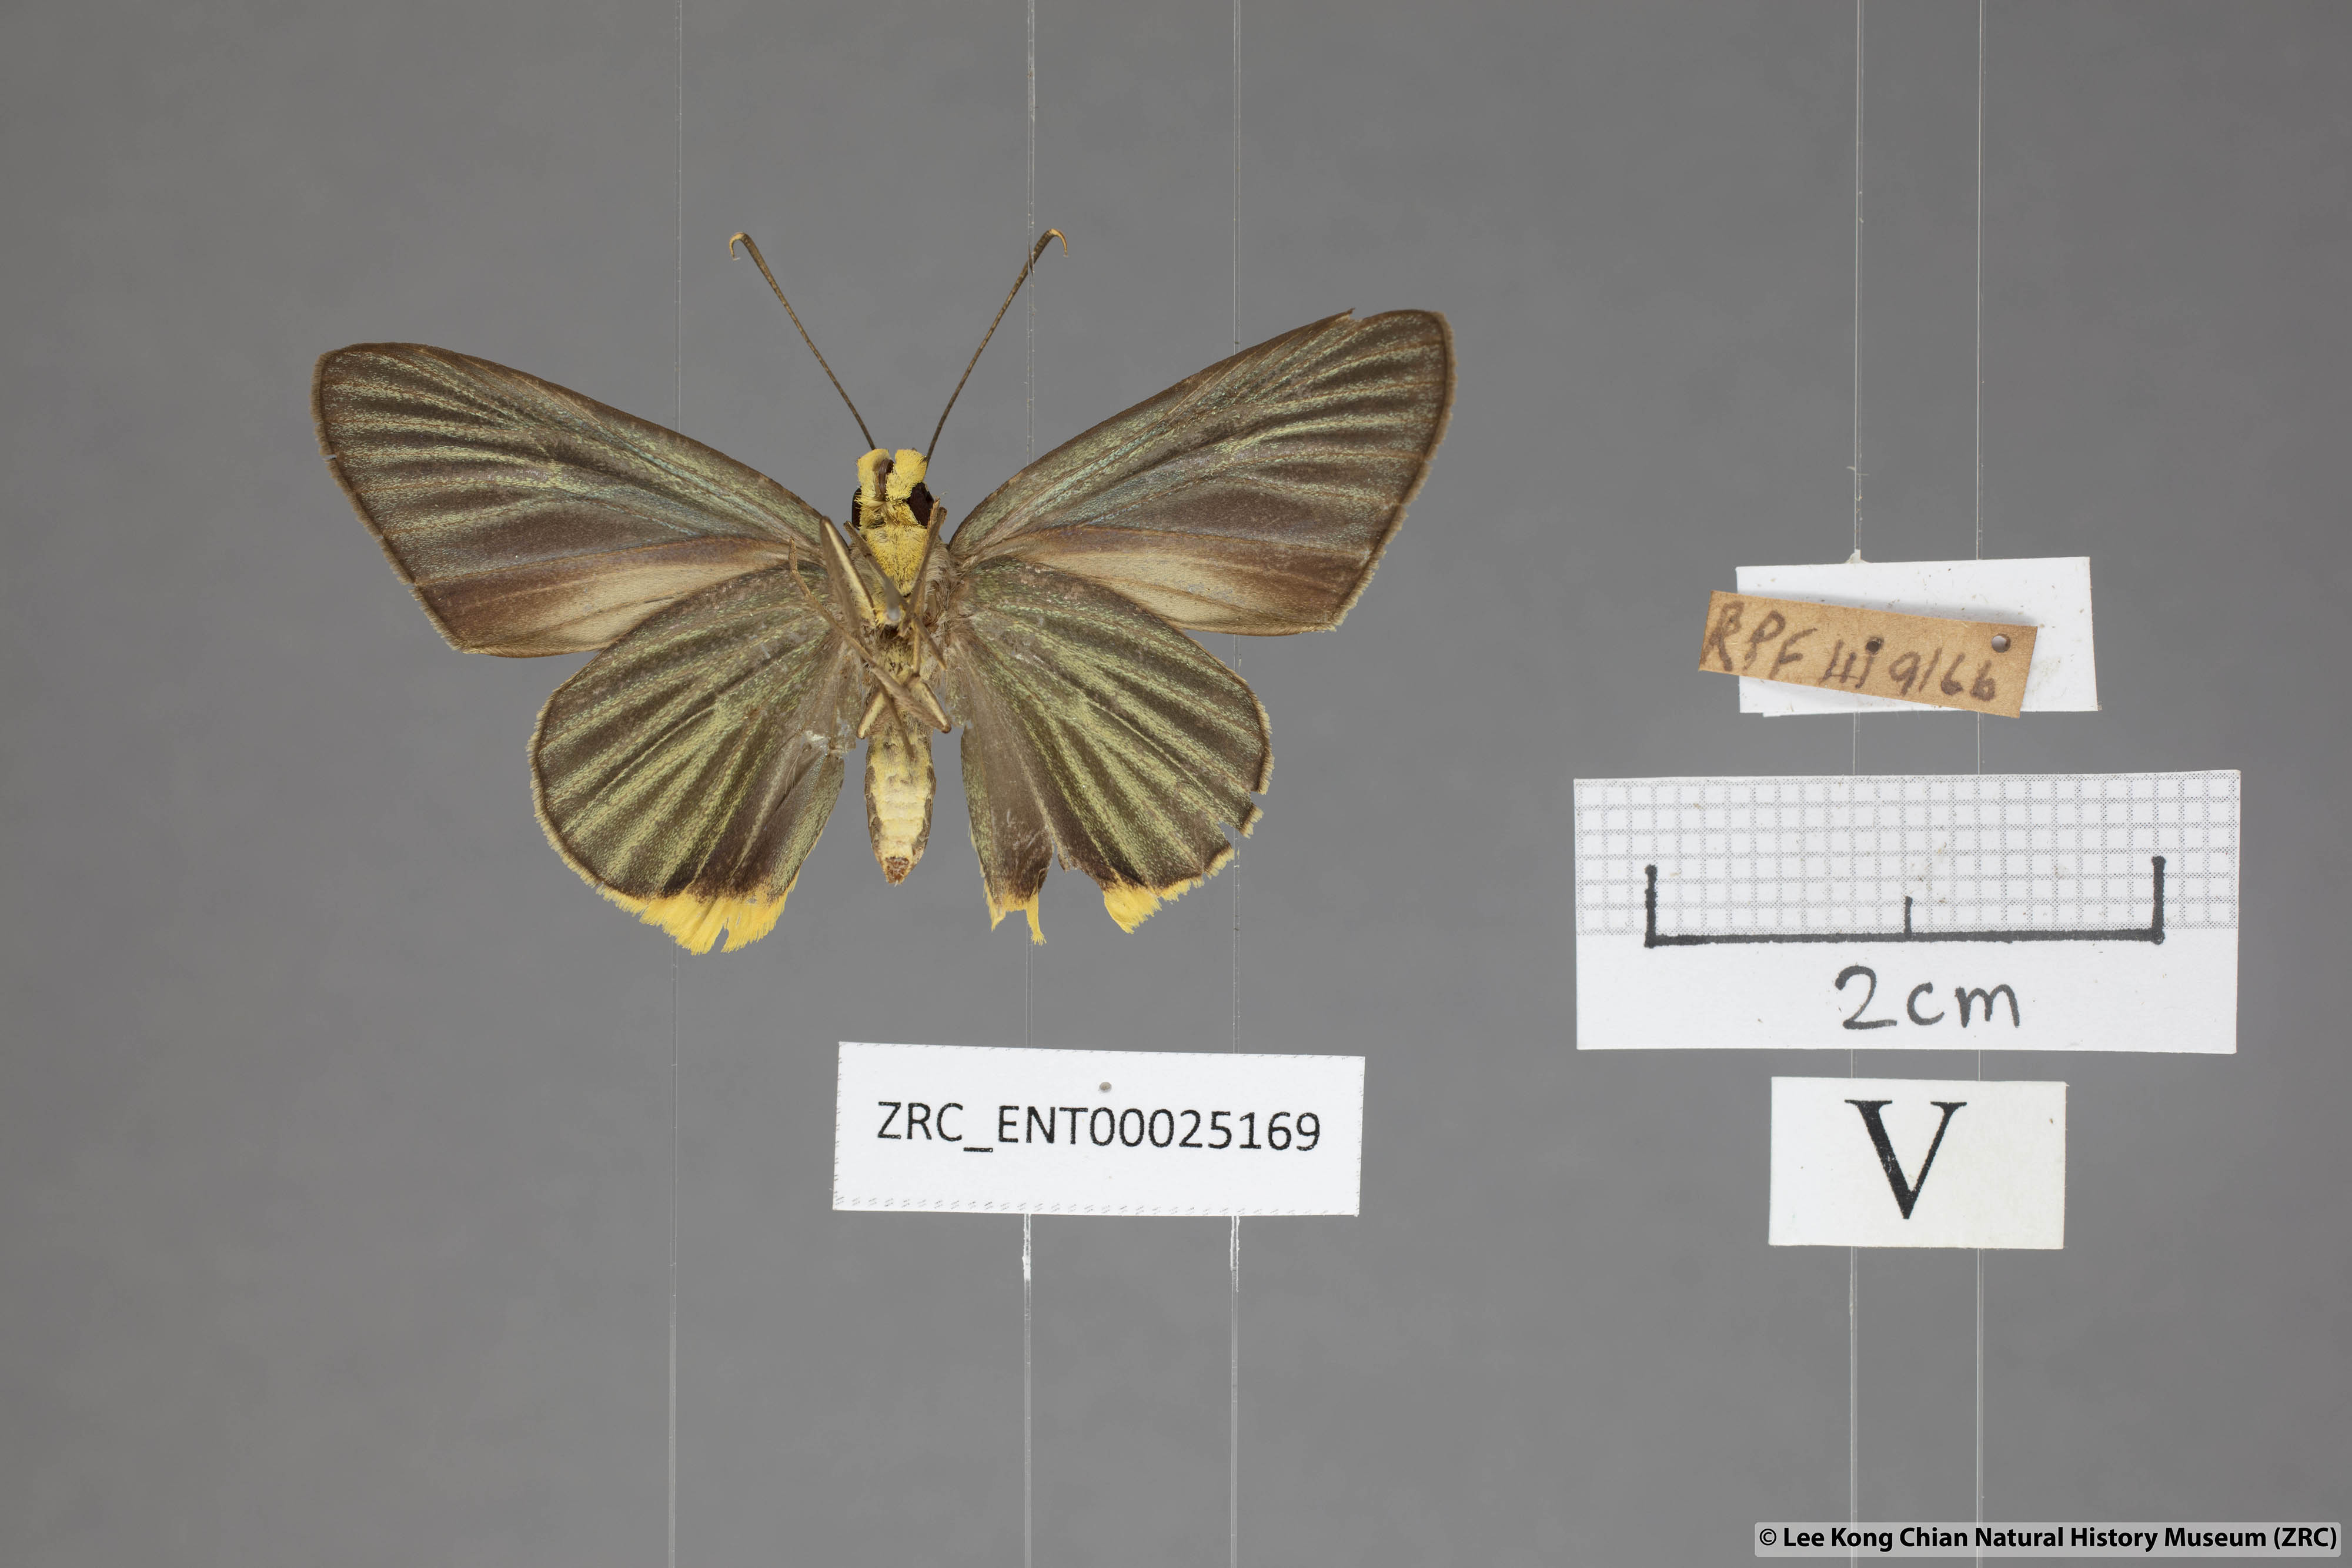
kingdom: Animalia
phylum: Arthropoda
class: Insecta
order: Lepidoptera
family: Hesperiidae
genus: Pirdana
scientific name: Pirdana hyela
